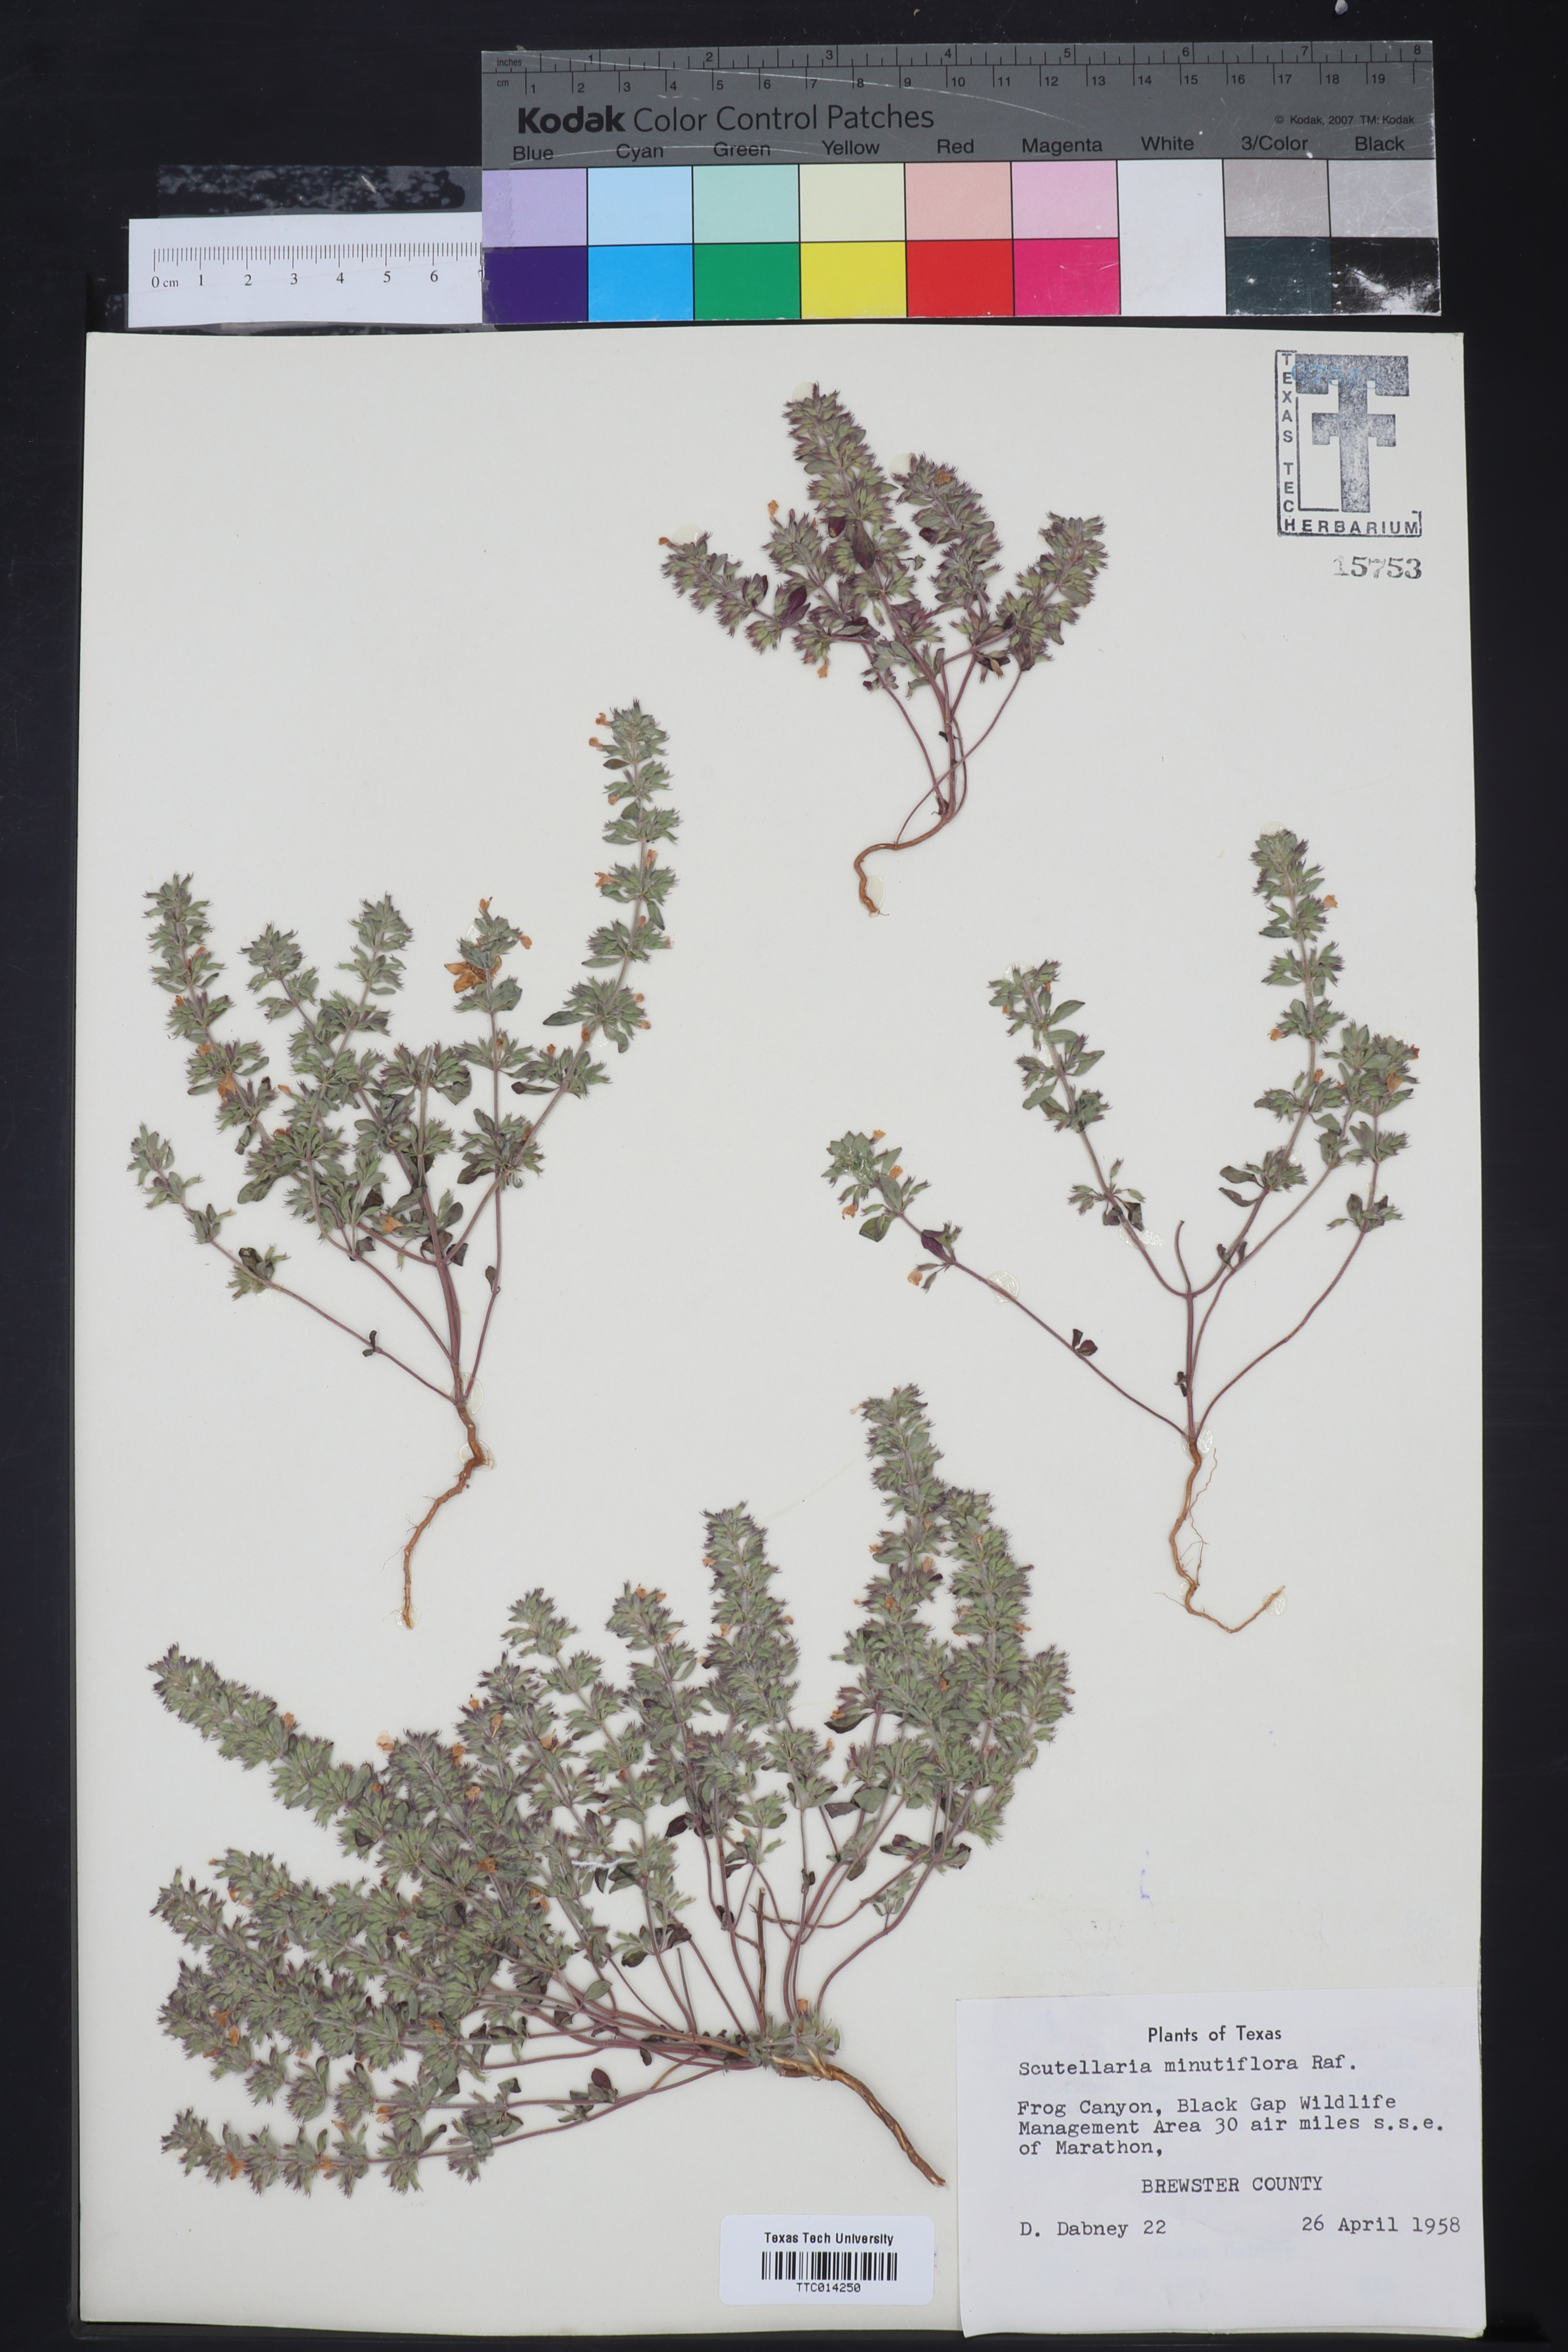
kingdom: Plantae
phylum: Tracheophyta
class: Magnoliopsida
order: Lamiales
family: Lamiaceae
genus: Scutellaria
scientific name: Scutellaria
